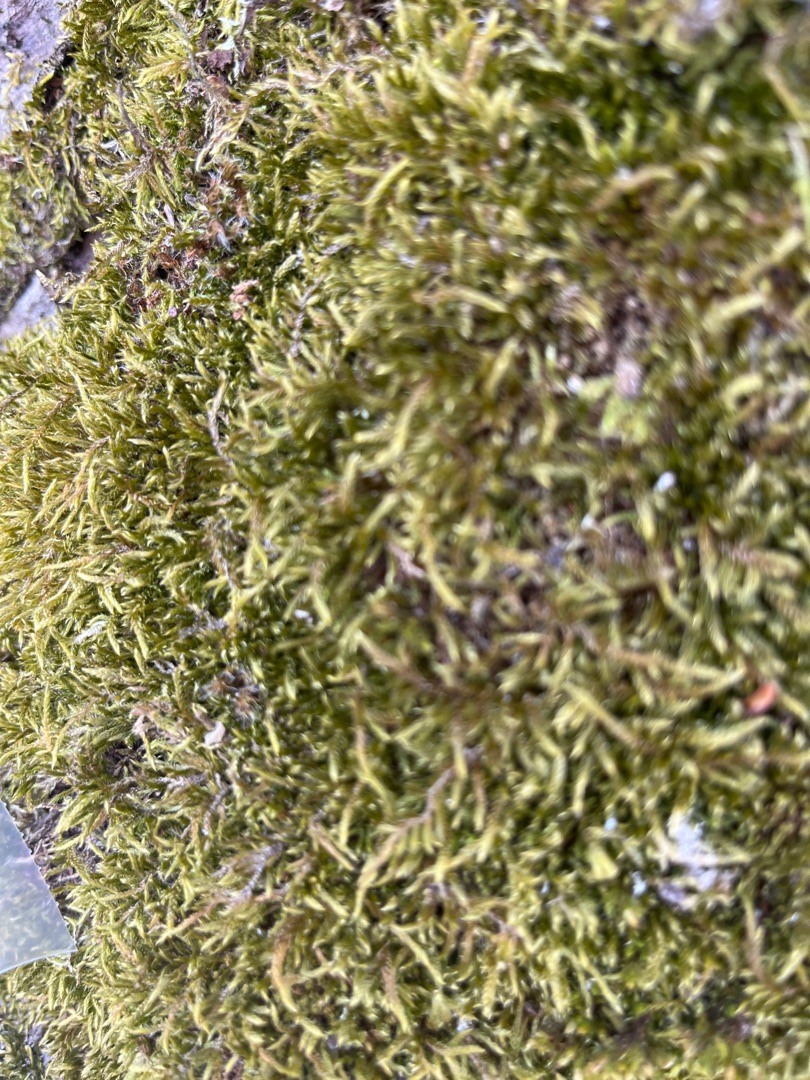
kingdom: Plantae
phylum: Bryophyta
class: Bryopsida
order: Hypnales
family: Hypnaceae
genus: Hypnum
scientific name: Hypnum
